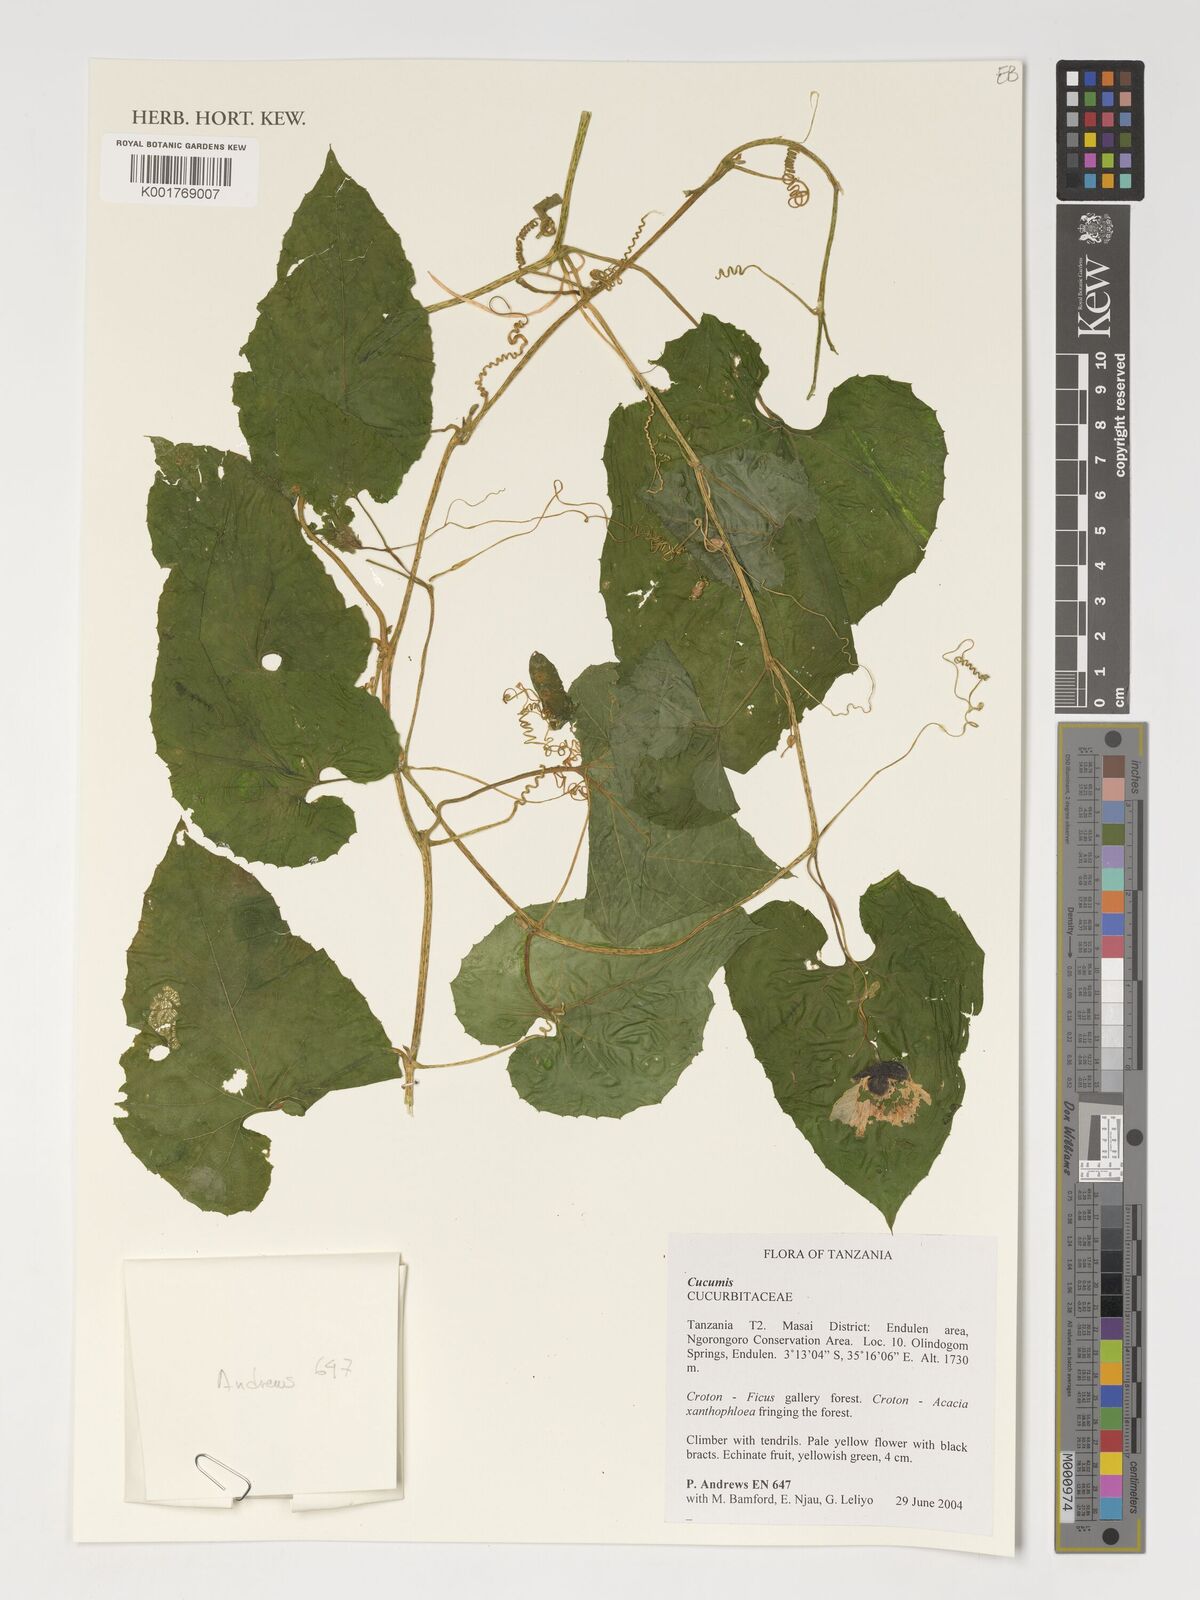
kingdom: Plantae
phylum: Tracheophyta
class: Magnoliopsida
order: Cucurbitales
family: Cucurbitaceae
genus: Cucumis
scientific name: Cucumis
